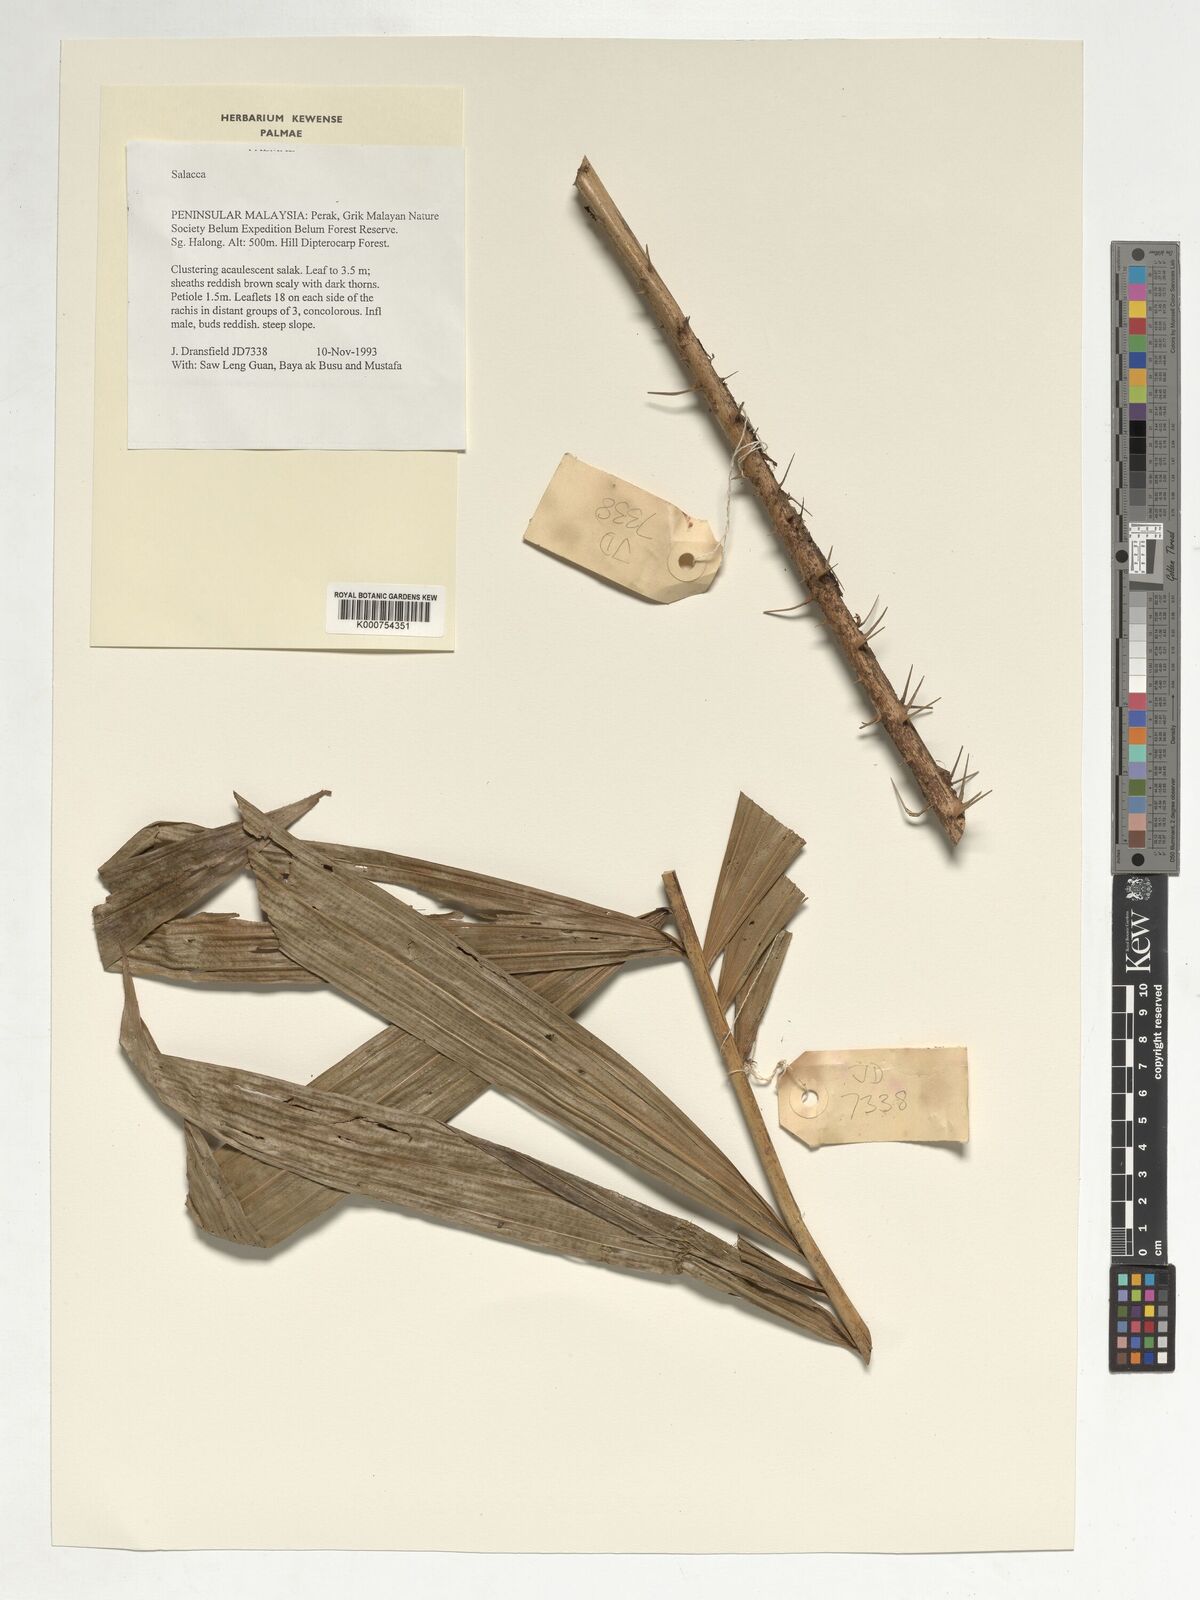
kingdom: Plantae
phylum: Tracheophyta
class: Liliopsida
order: Arecales
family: Arecaceae
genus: Salacca
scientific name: Salacca
